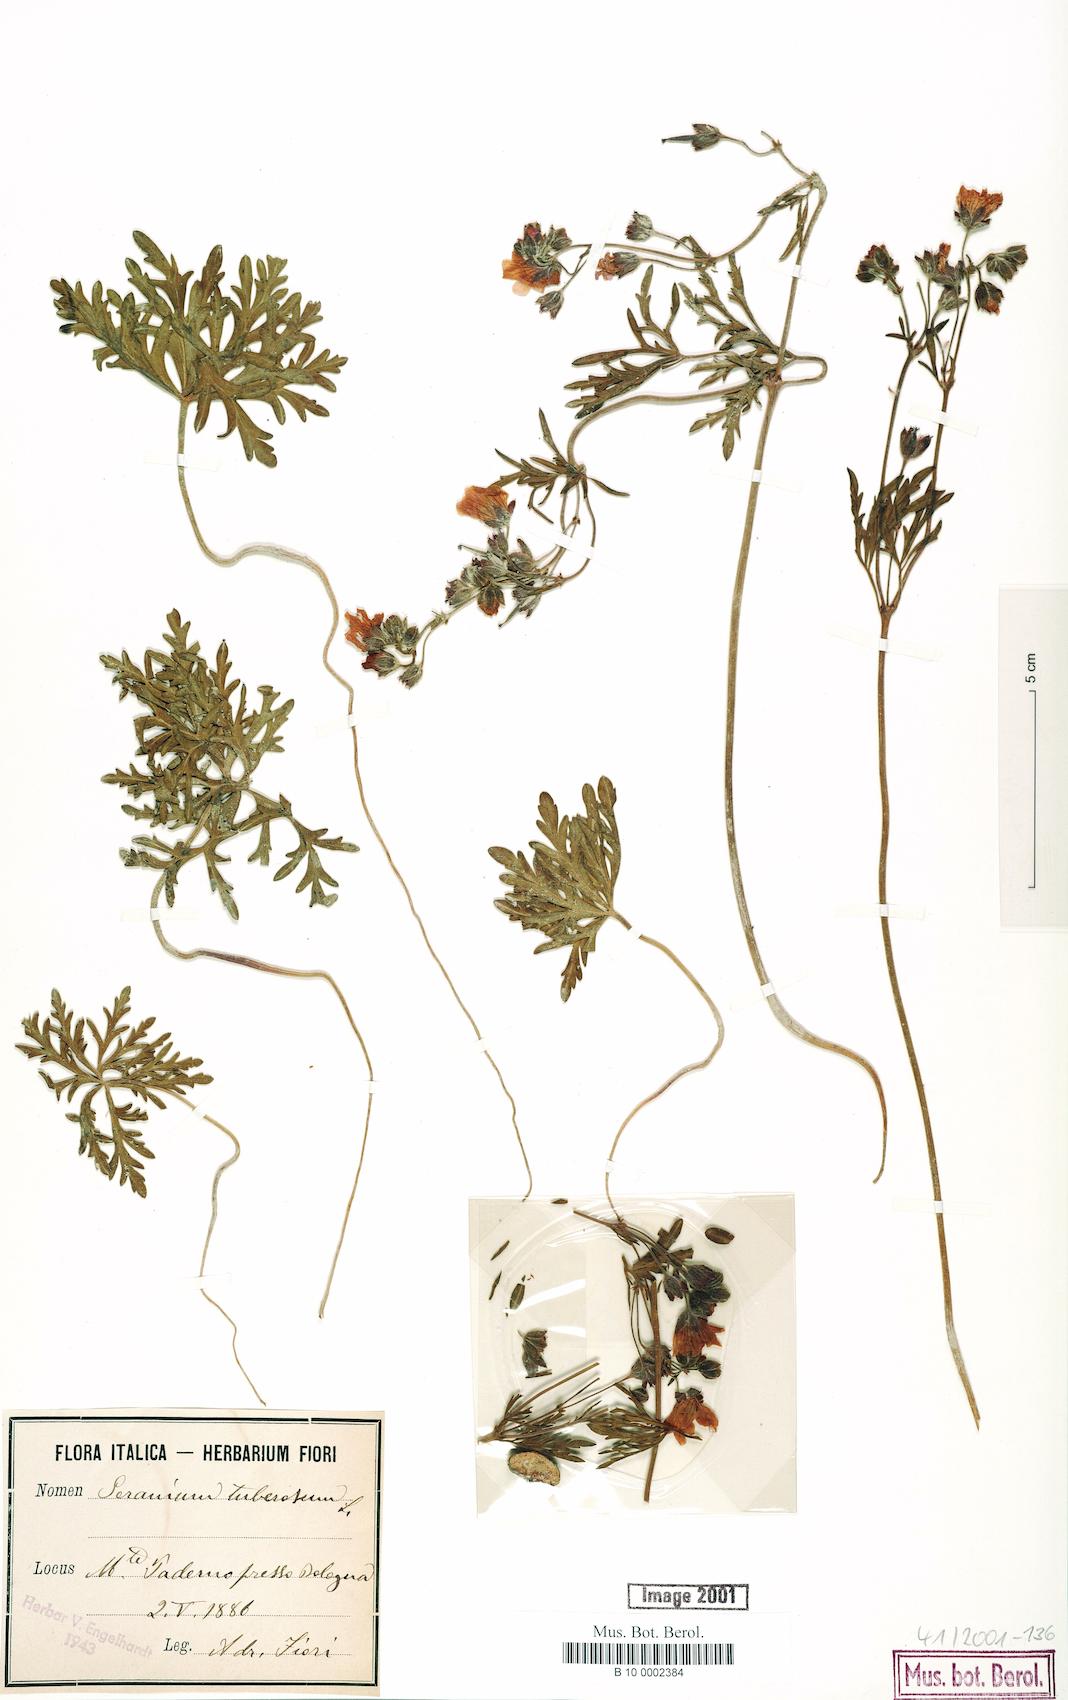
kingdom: Plantae
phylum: Tracheophyta
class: Magnoliopsida
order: Geraniales
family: Geraniaceae
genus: Geranium
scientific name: Geranium tuberosum
